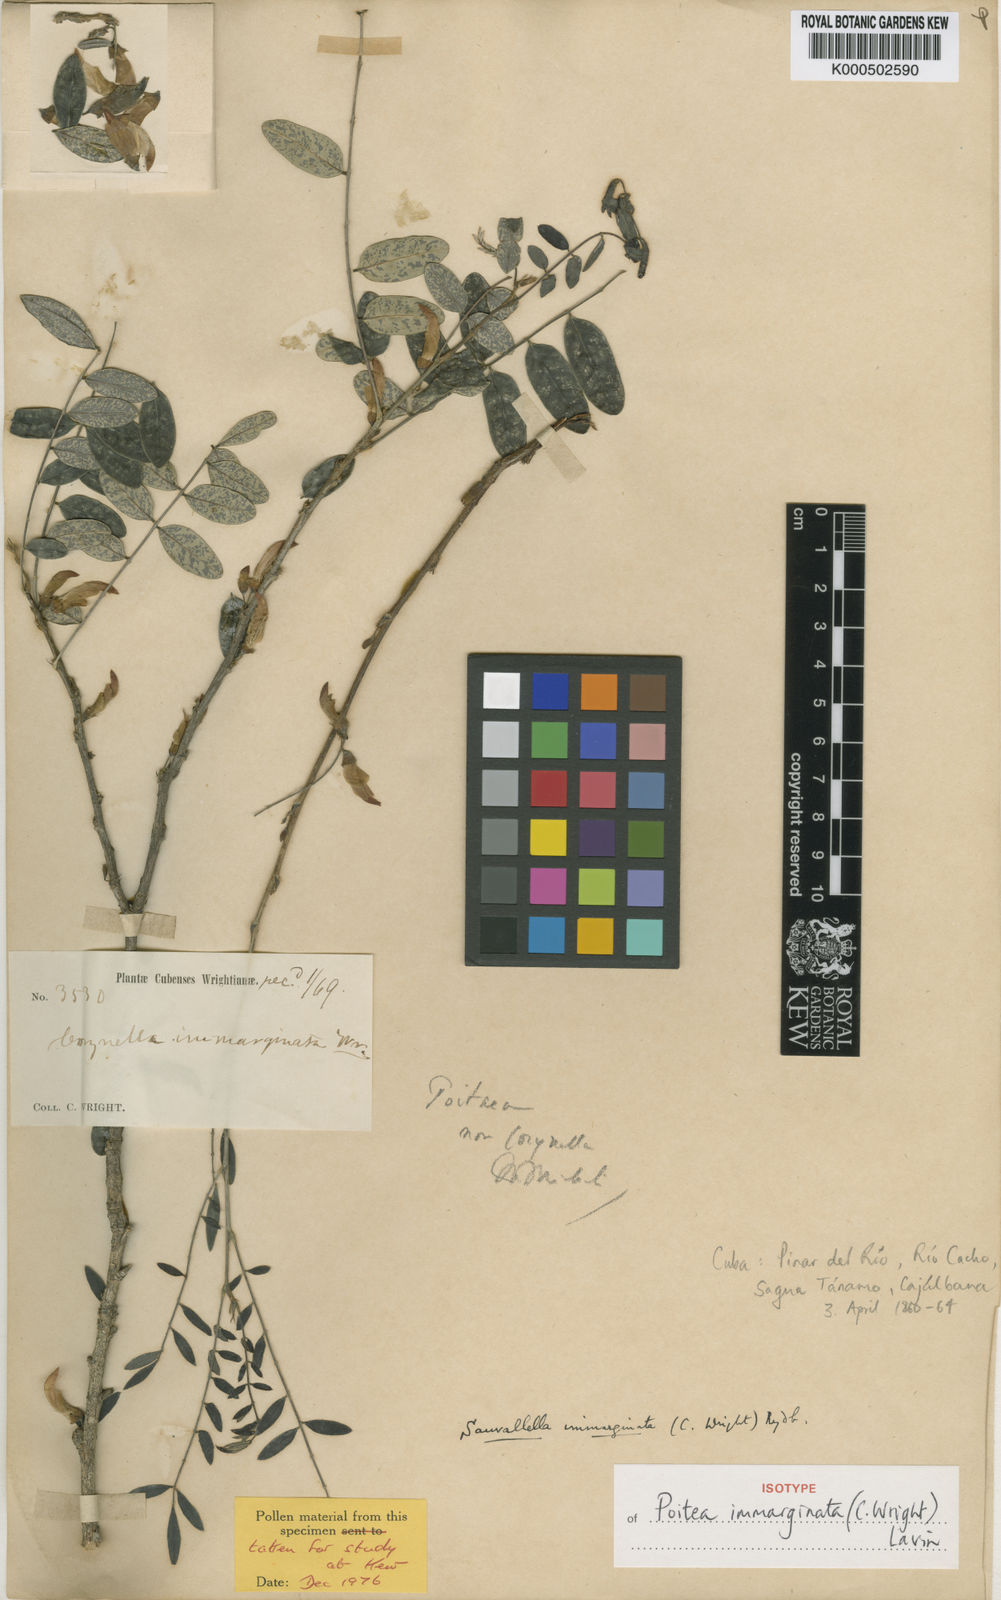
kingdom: Plantae
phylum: Tracheophyta
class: Magnoliopsida
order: Fabales
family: Fabaceae
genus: Poitea
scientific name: Poitea immarginata
